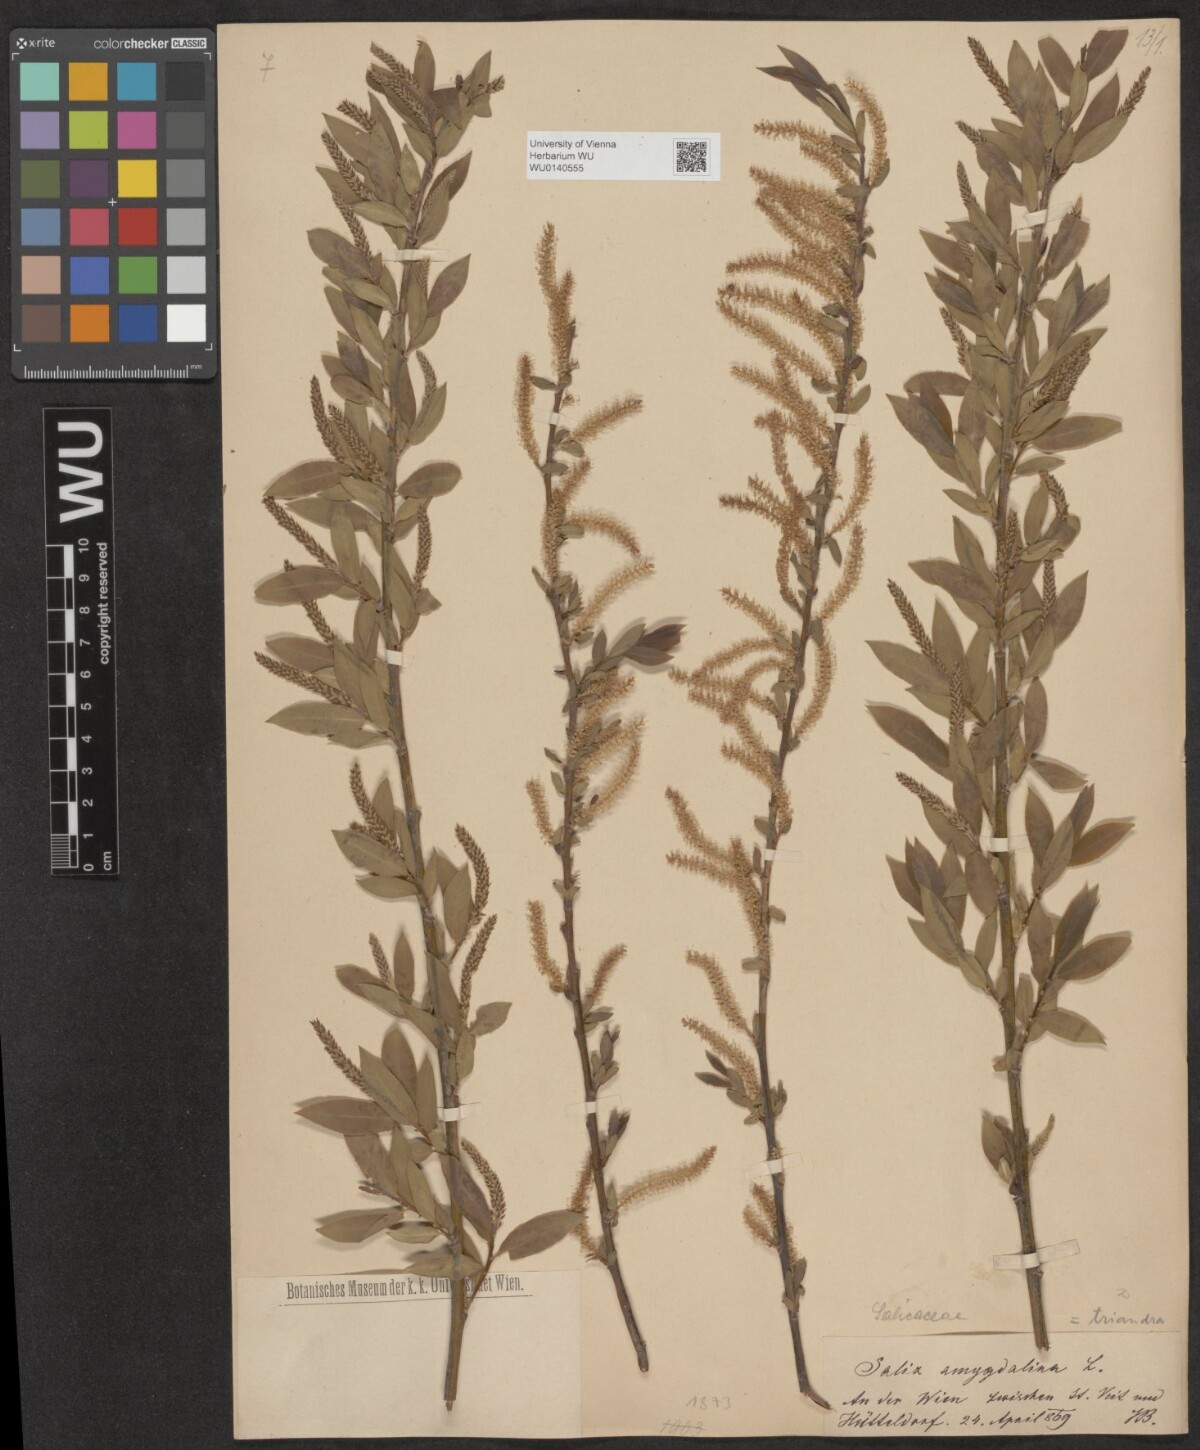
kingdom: Plantae
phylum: Tracheophyta
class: Magnoliopsida
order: Malpighiales
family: Salicaceae
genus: Salix
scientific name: Salix triandra
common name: Almond willow
